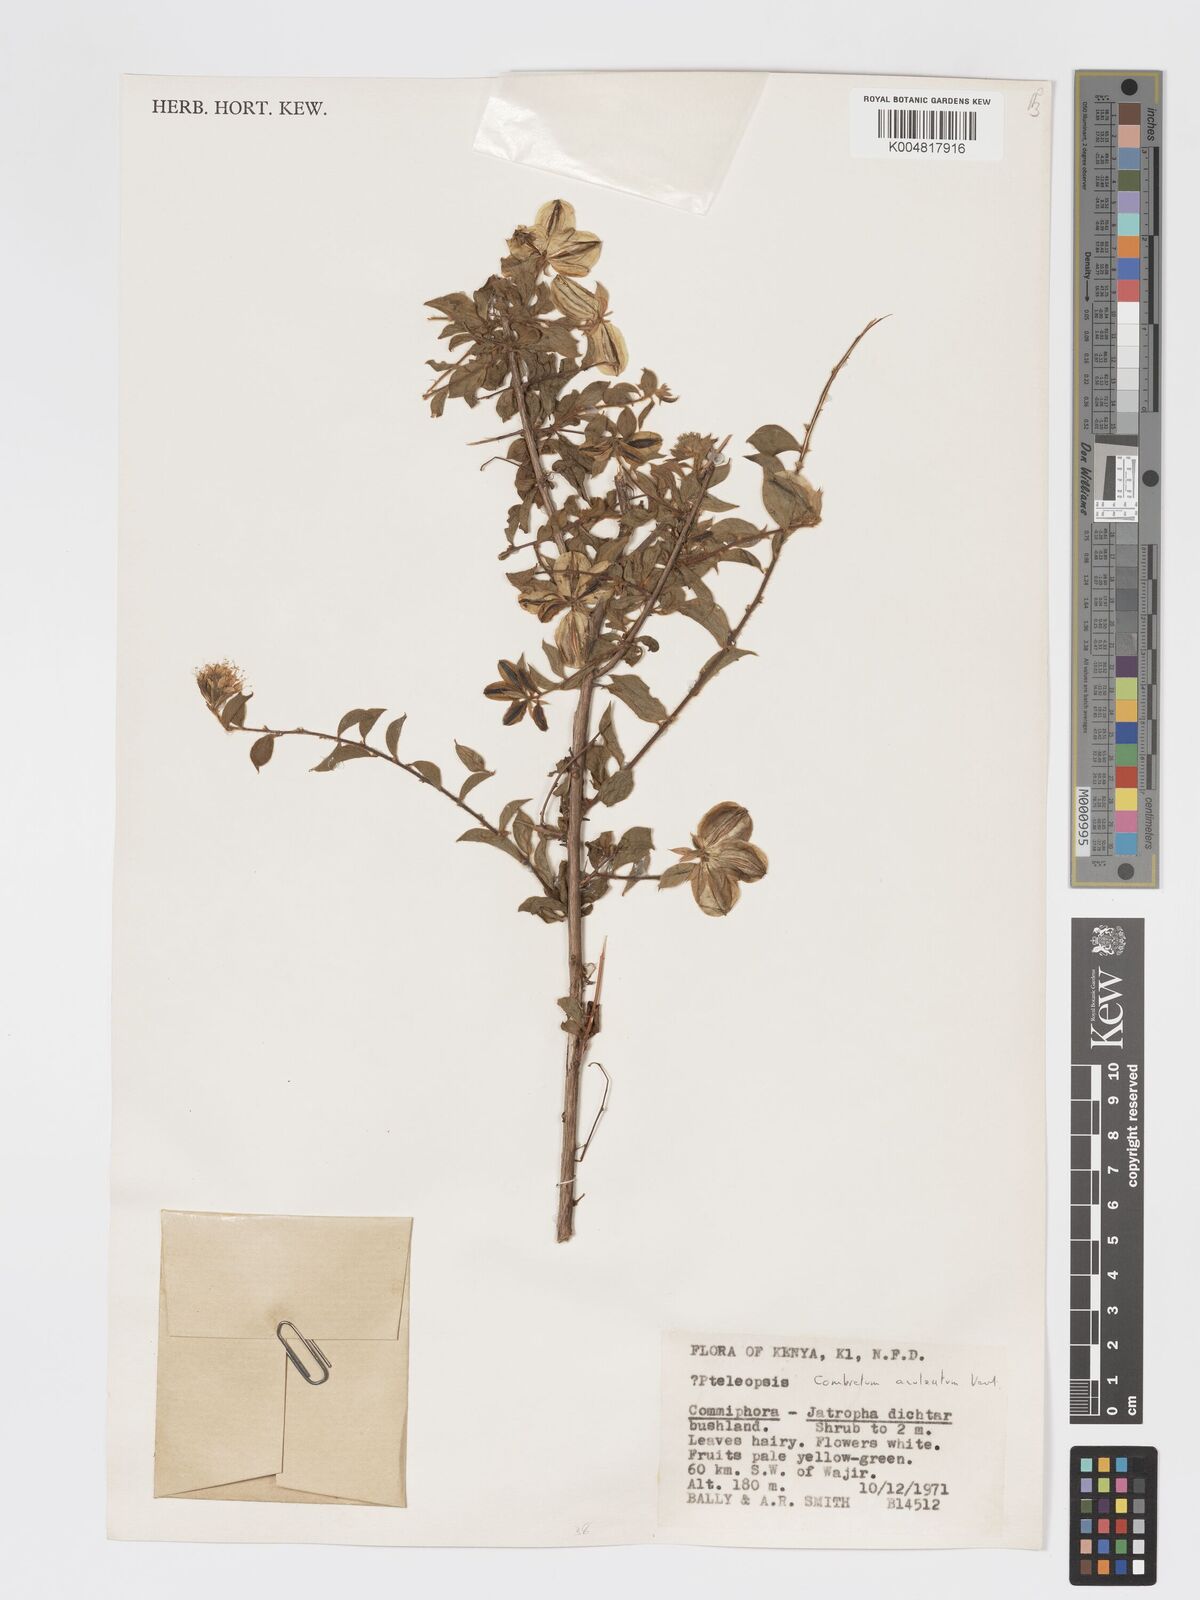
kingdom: Plantae
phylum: Tracheophyta
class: Magnoliopsida
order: Myrtales
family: Combretaceae
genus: Combretum
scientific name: Combretum aculeatum
